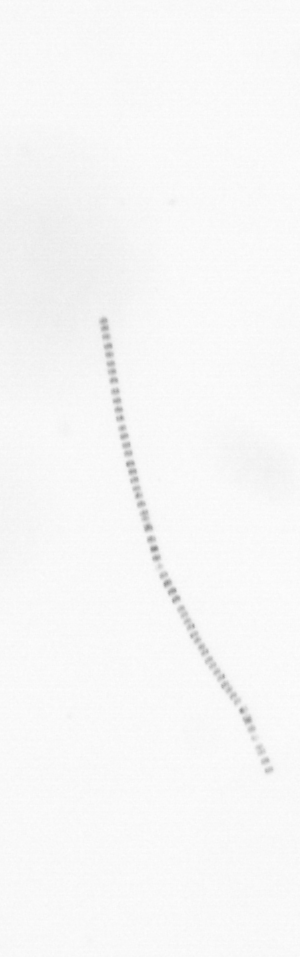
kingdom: Chromista
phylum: Ochrophyta
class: Bacillariophyceae
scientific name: Bacillariophyceae
